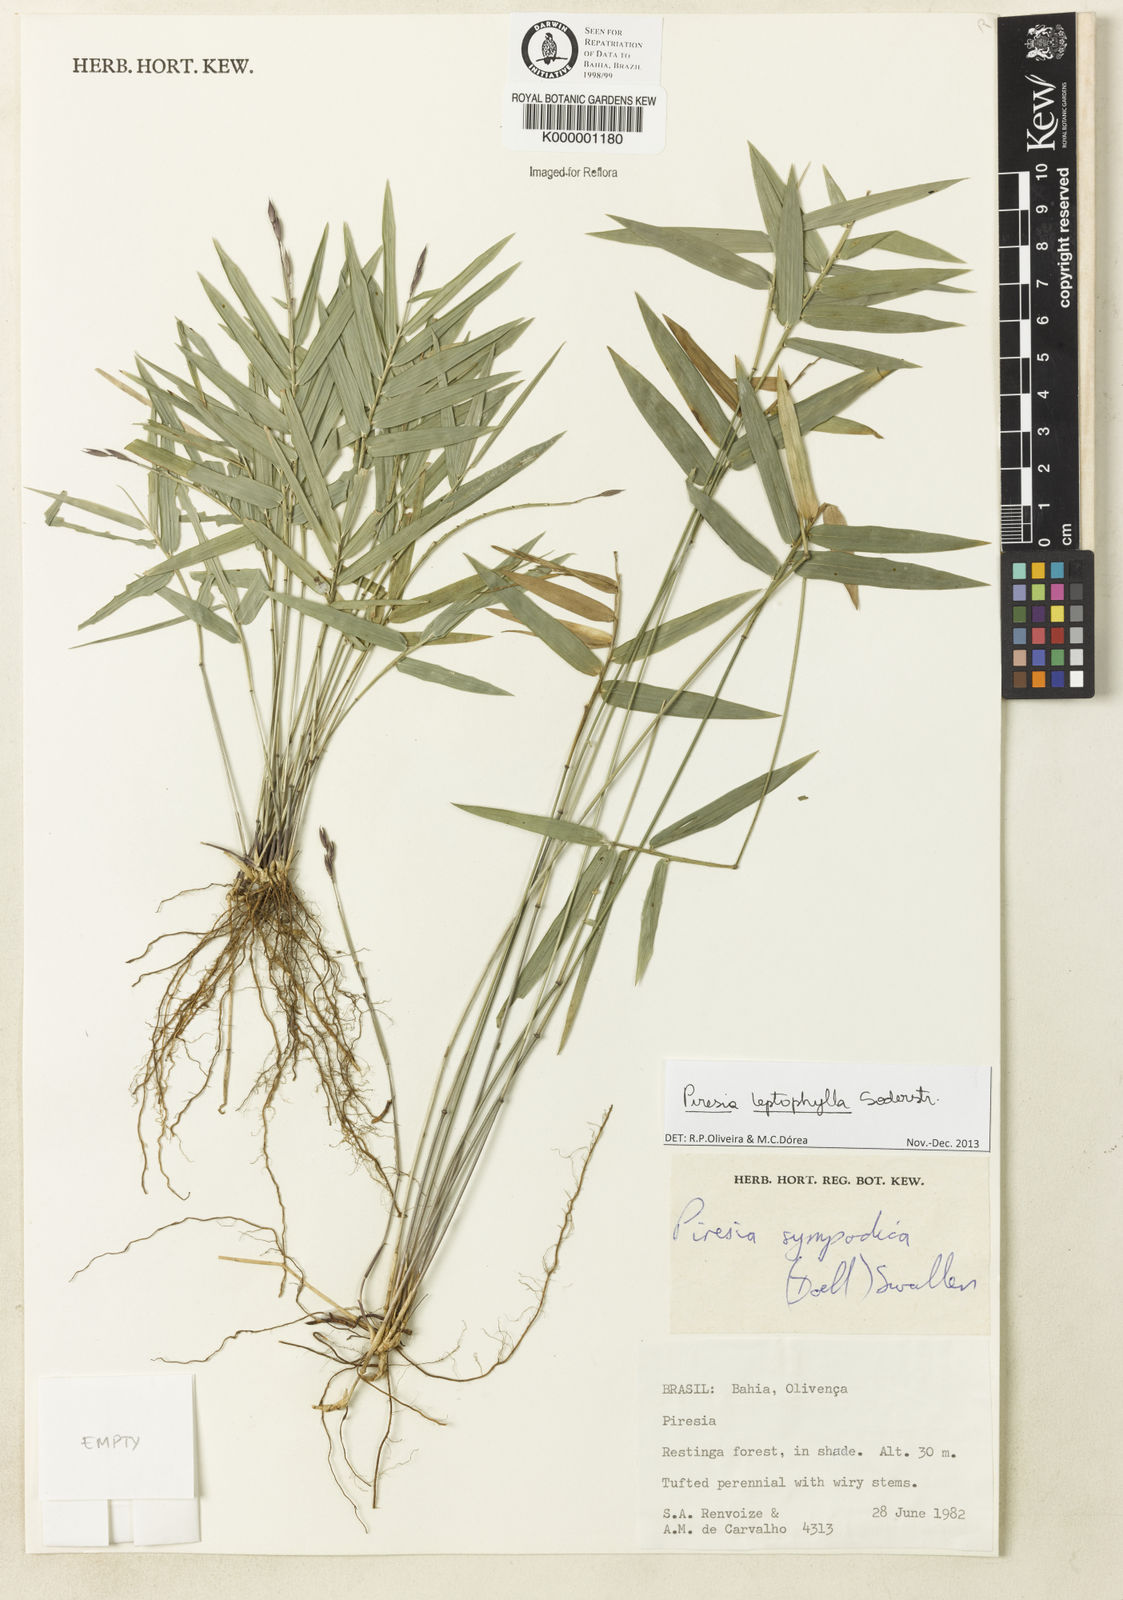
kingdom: Plantae
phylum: Tracheophyta
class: Liliopsida
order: Poales
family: Poaceae
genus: Piresia
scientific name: Piresia leptophylla
